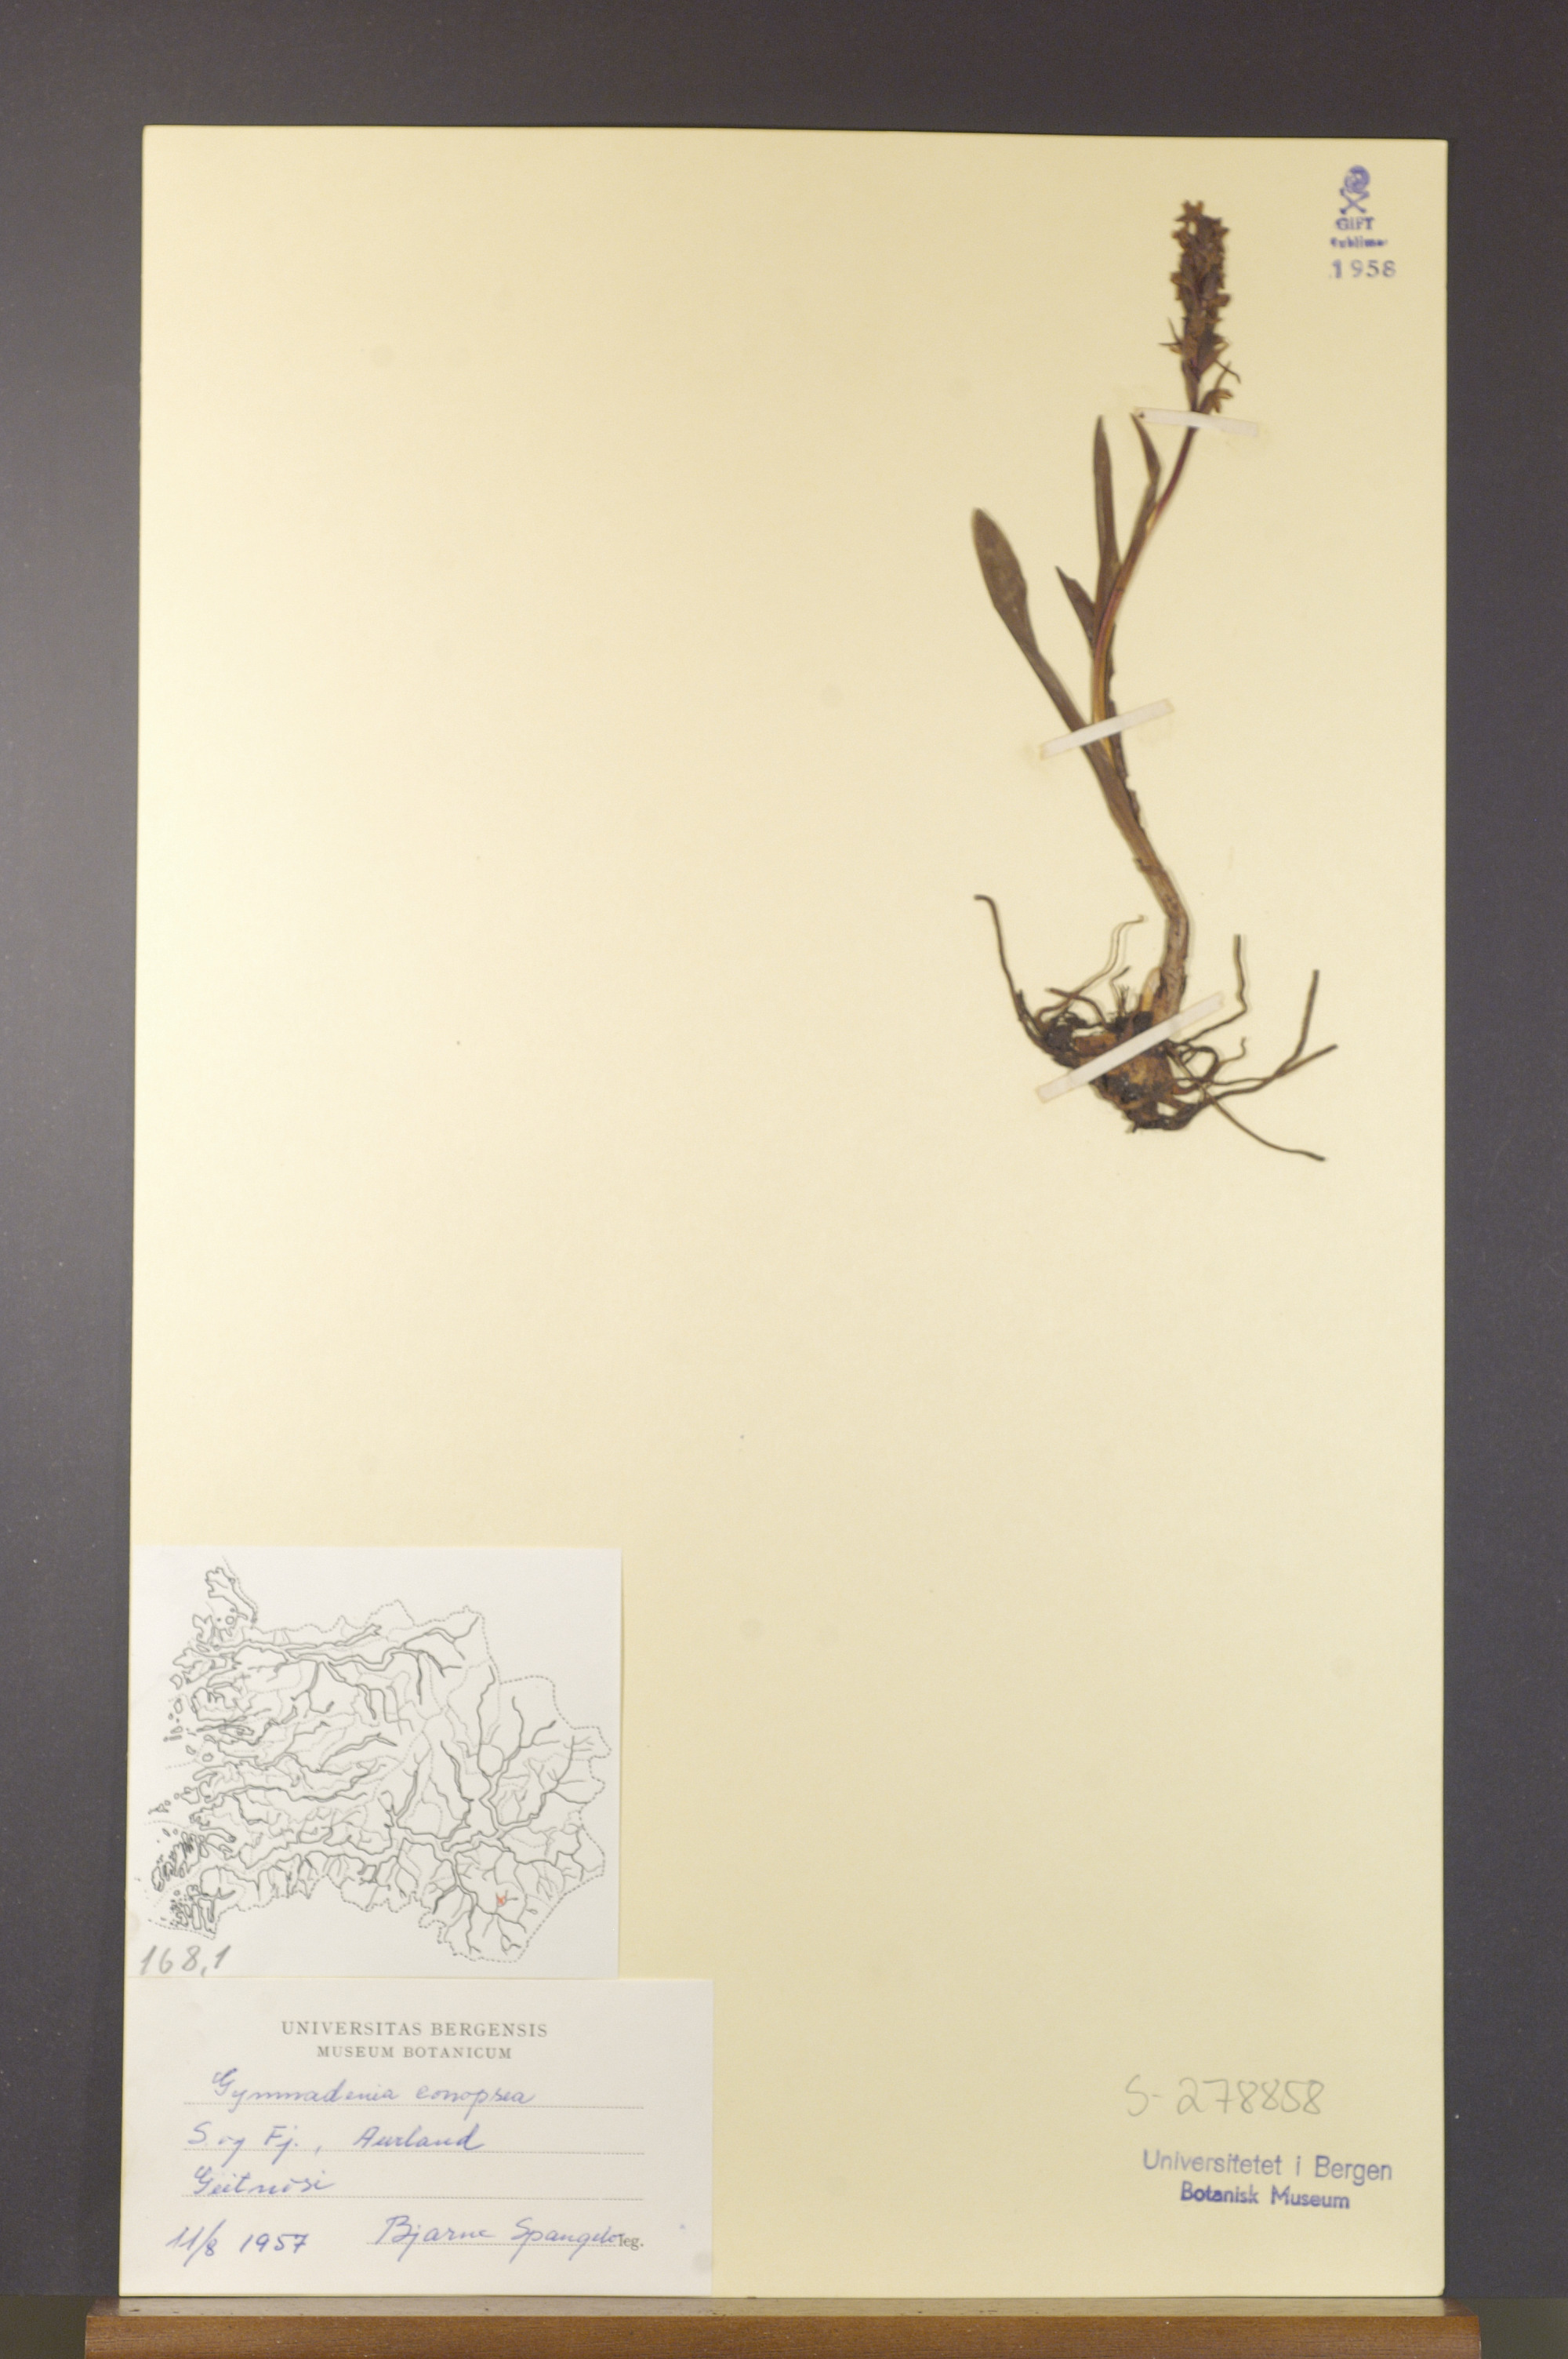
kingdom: Plantae
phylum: Tracheophyta
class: Liliopsida
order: Asparagales
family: Orchidaceae
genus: Gymnadenia
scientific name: Gymnadenia conopsea
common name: Fragrant orchid
